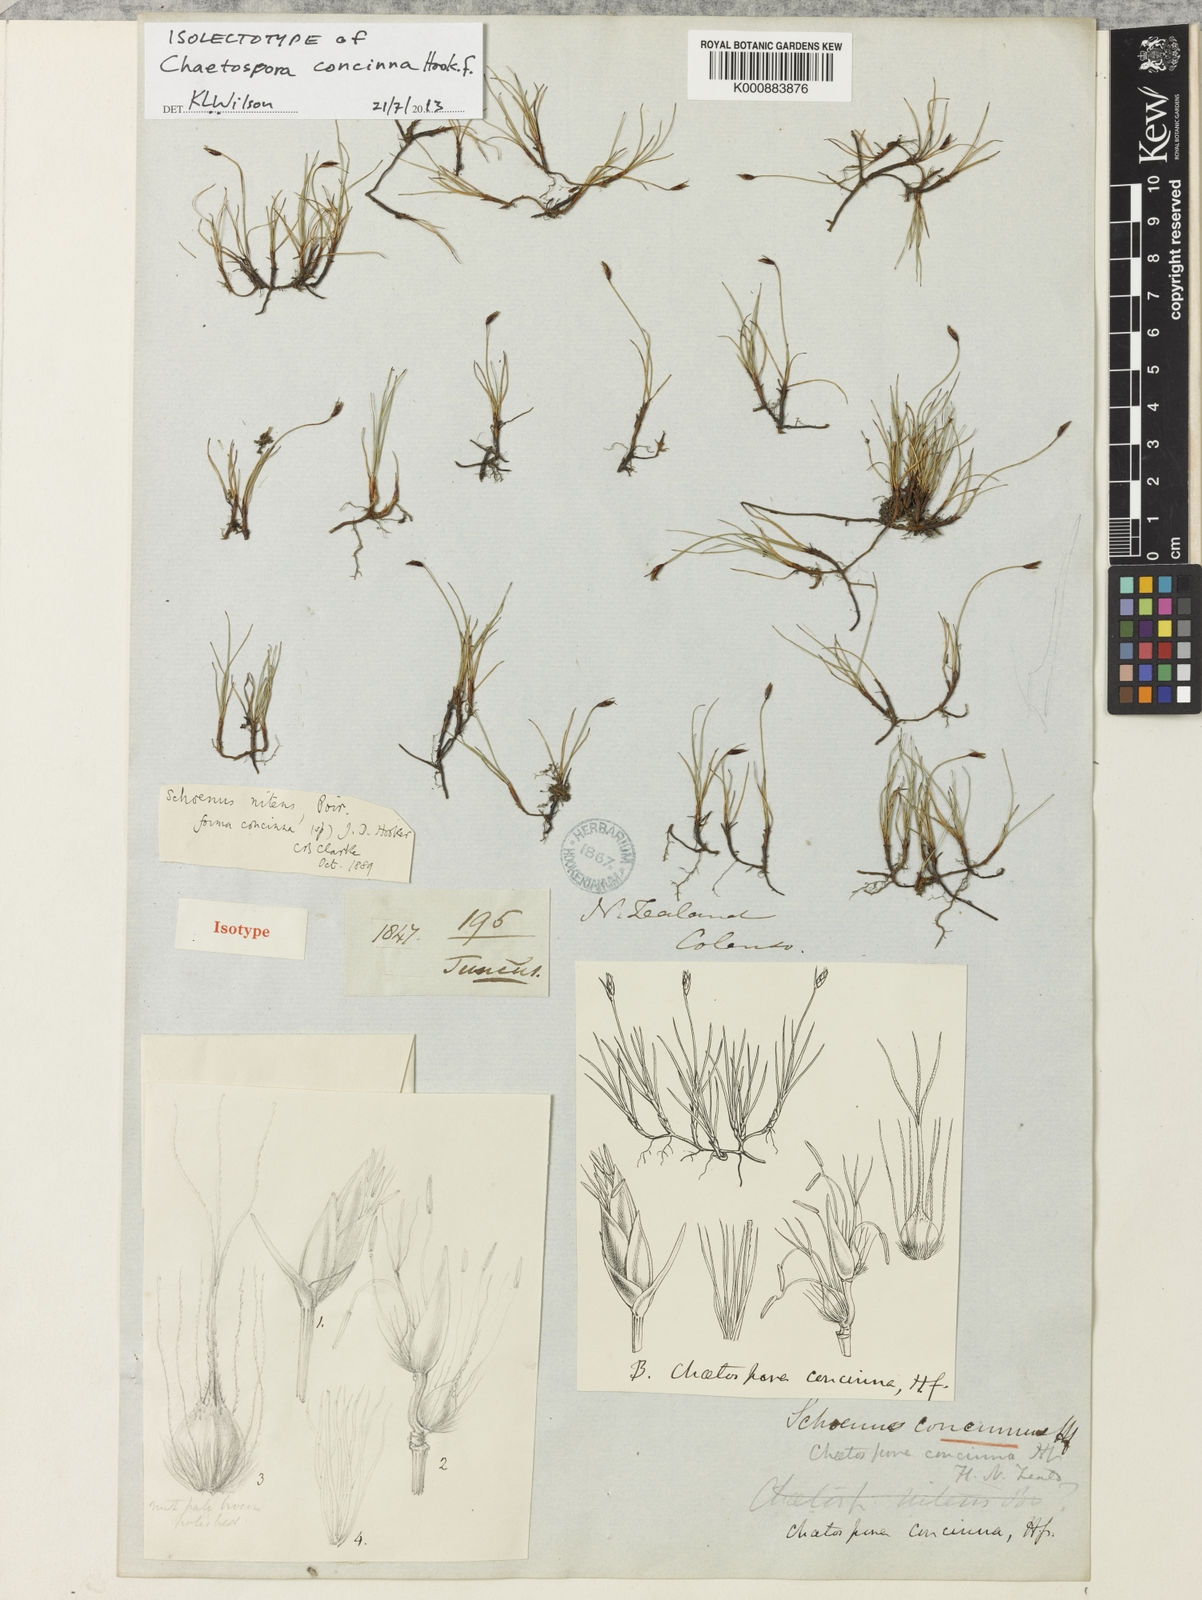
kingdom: Plantae
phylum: Tracheophyta
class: Liliopsida
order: Poales
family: Cyperaceae
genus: Schoenus
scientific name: Schoenus nitens
